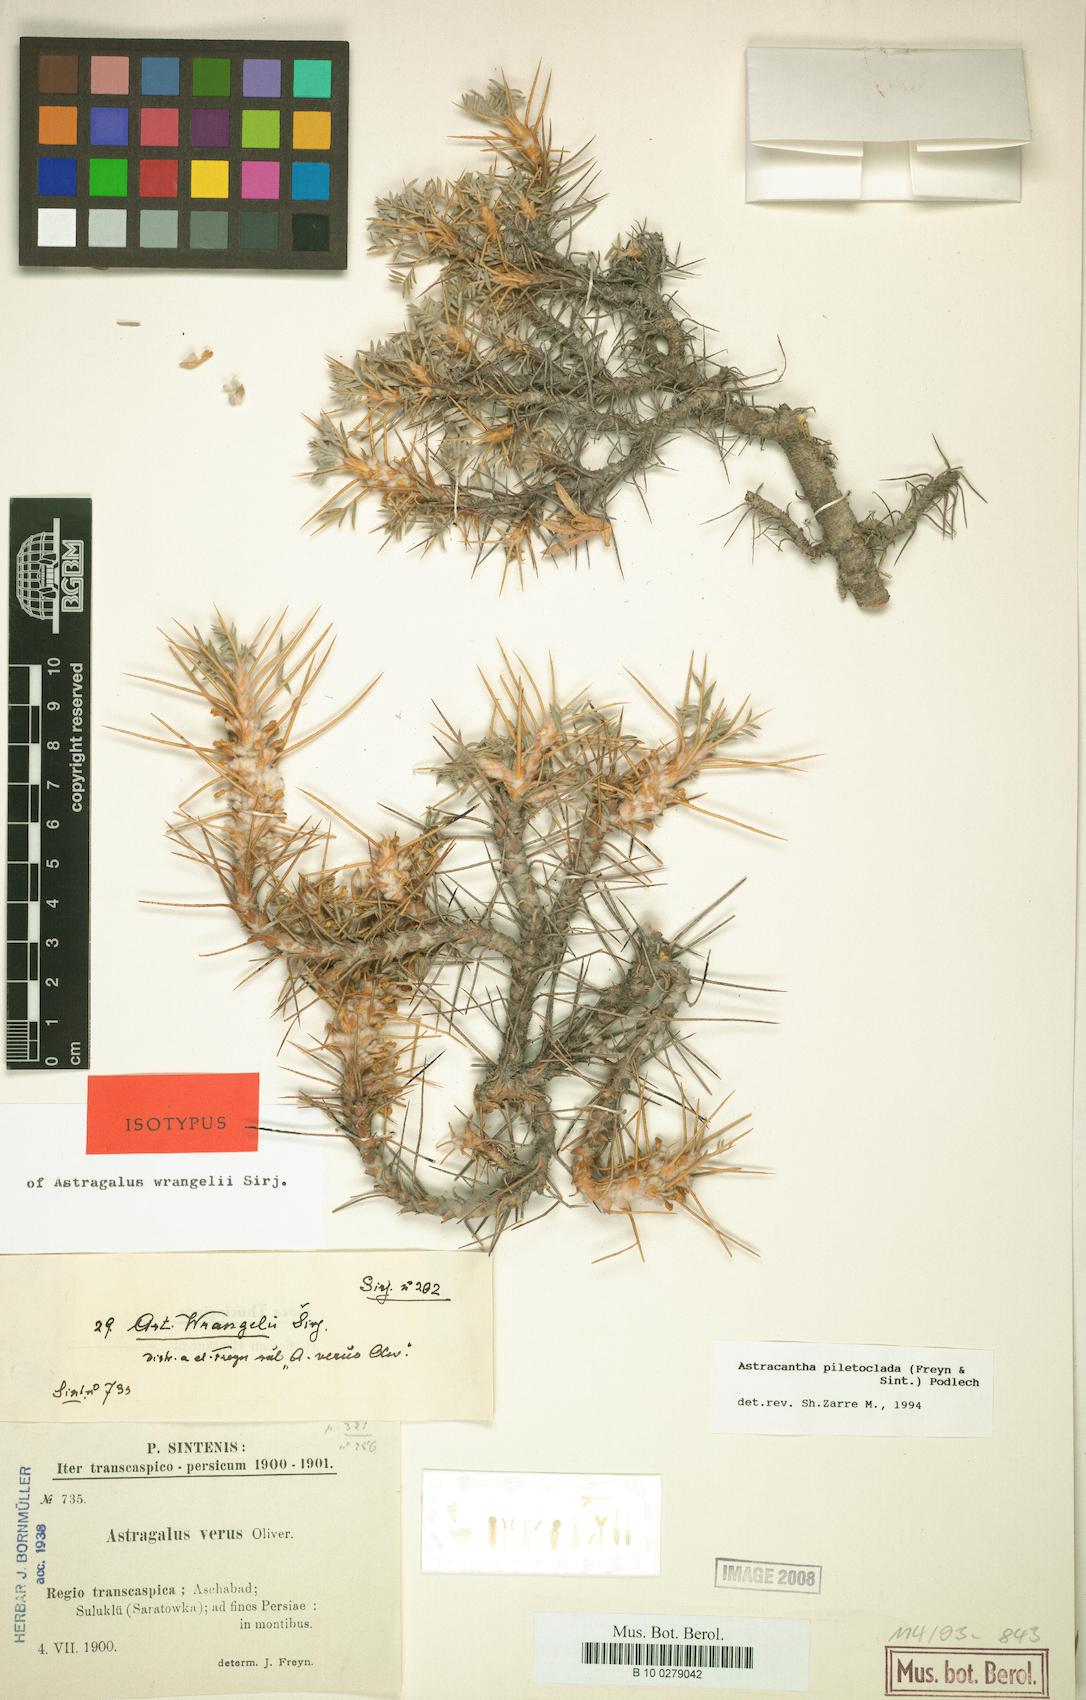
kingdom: Plantae
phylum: Tracheophyta
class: Magnoliopsida
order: Fabales
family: Fabaceae
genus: Astragalus
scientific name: Astragalus verus
